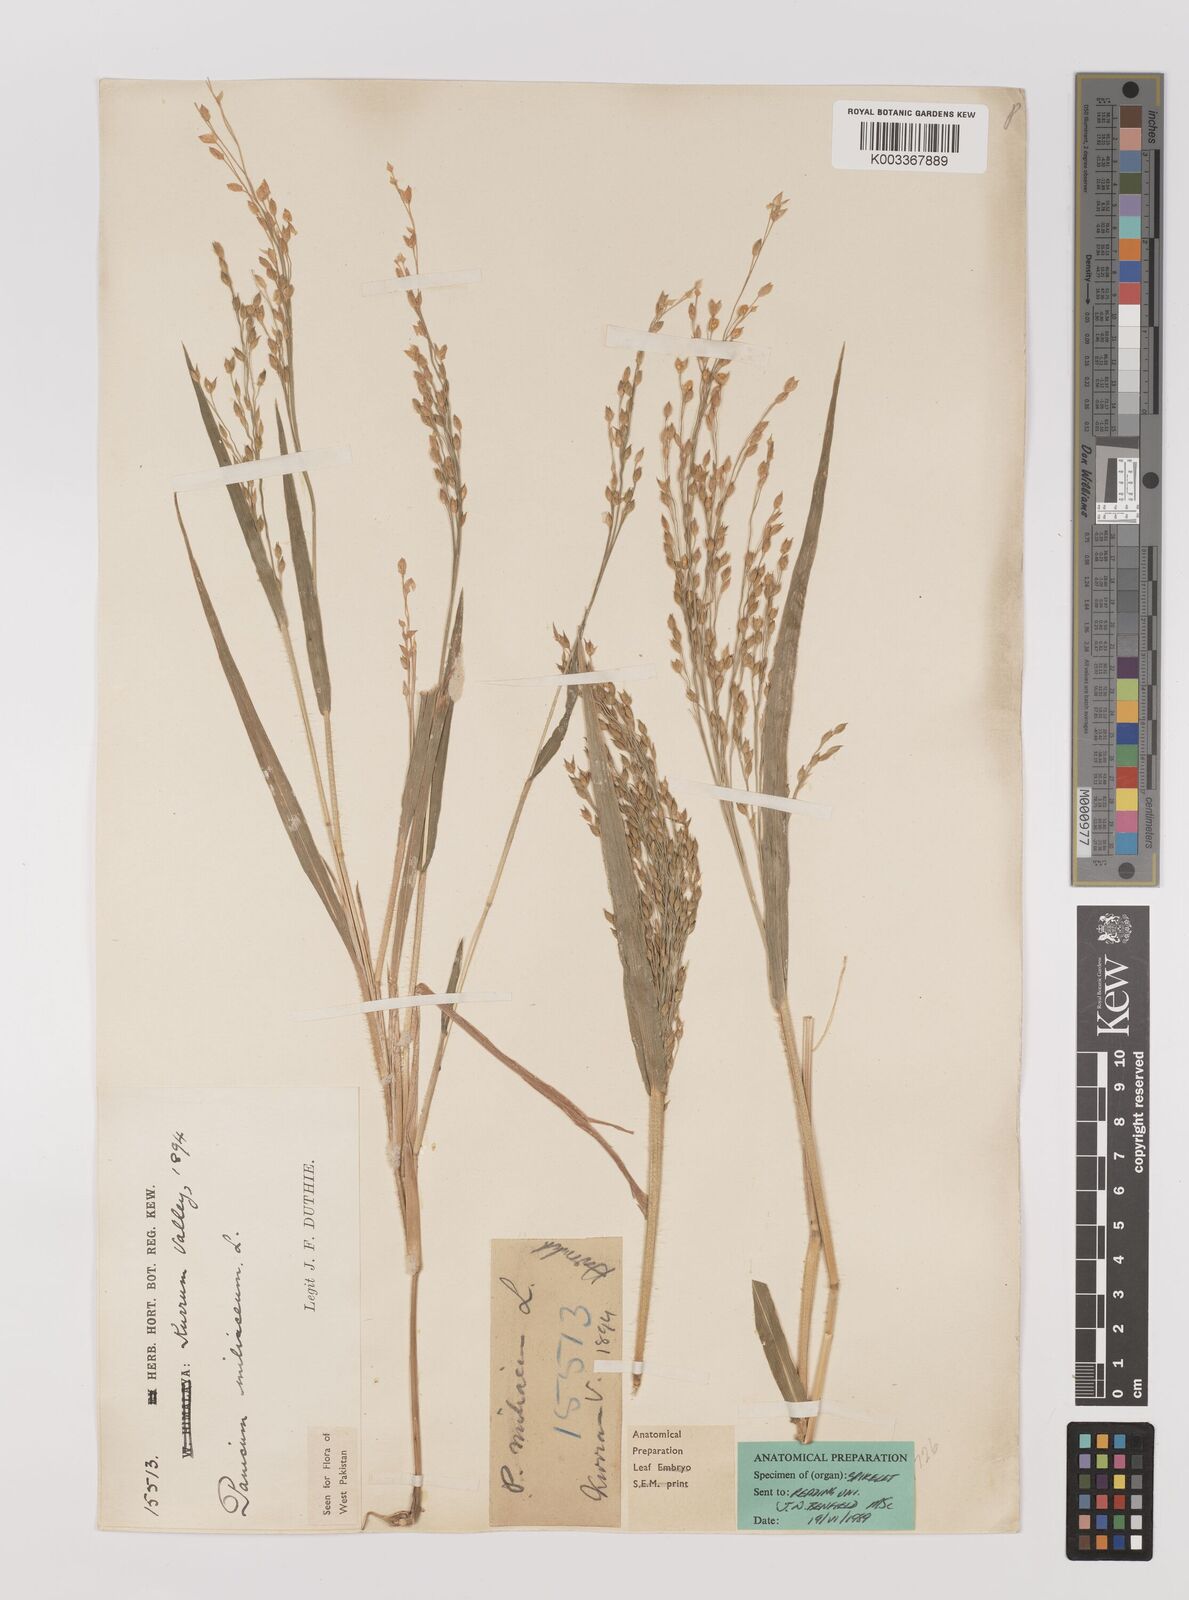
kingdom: Plantae
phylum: Tracheophyta
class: Liliopsida
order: Poales
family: Poaceae
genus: Panicum
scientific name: Panicum miliaceum
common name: Common millet
